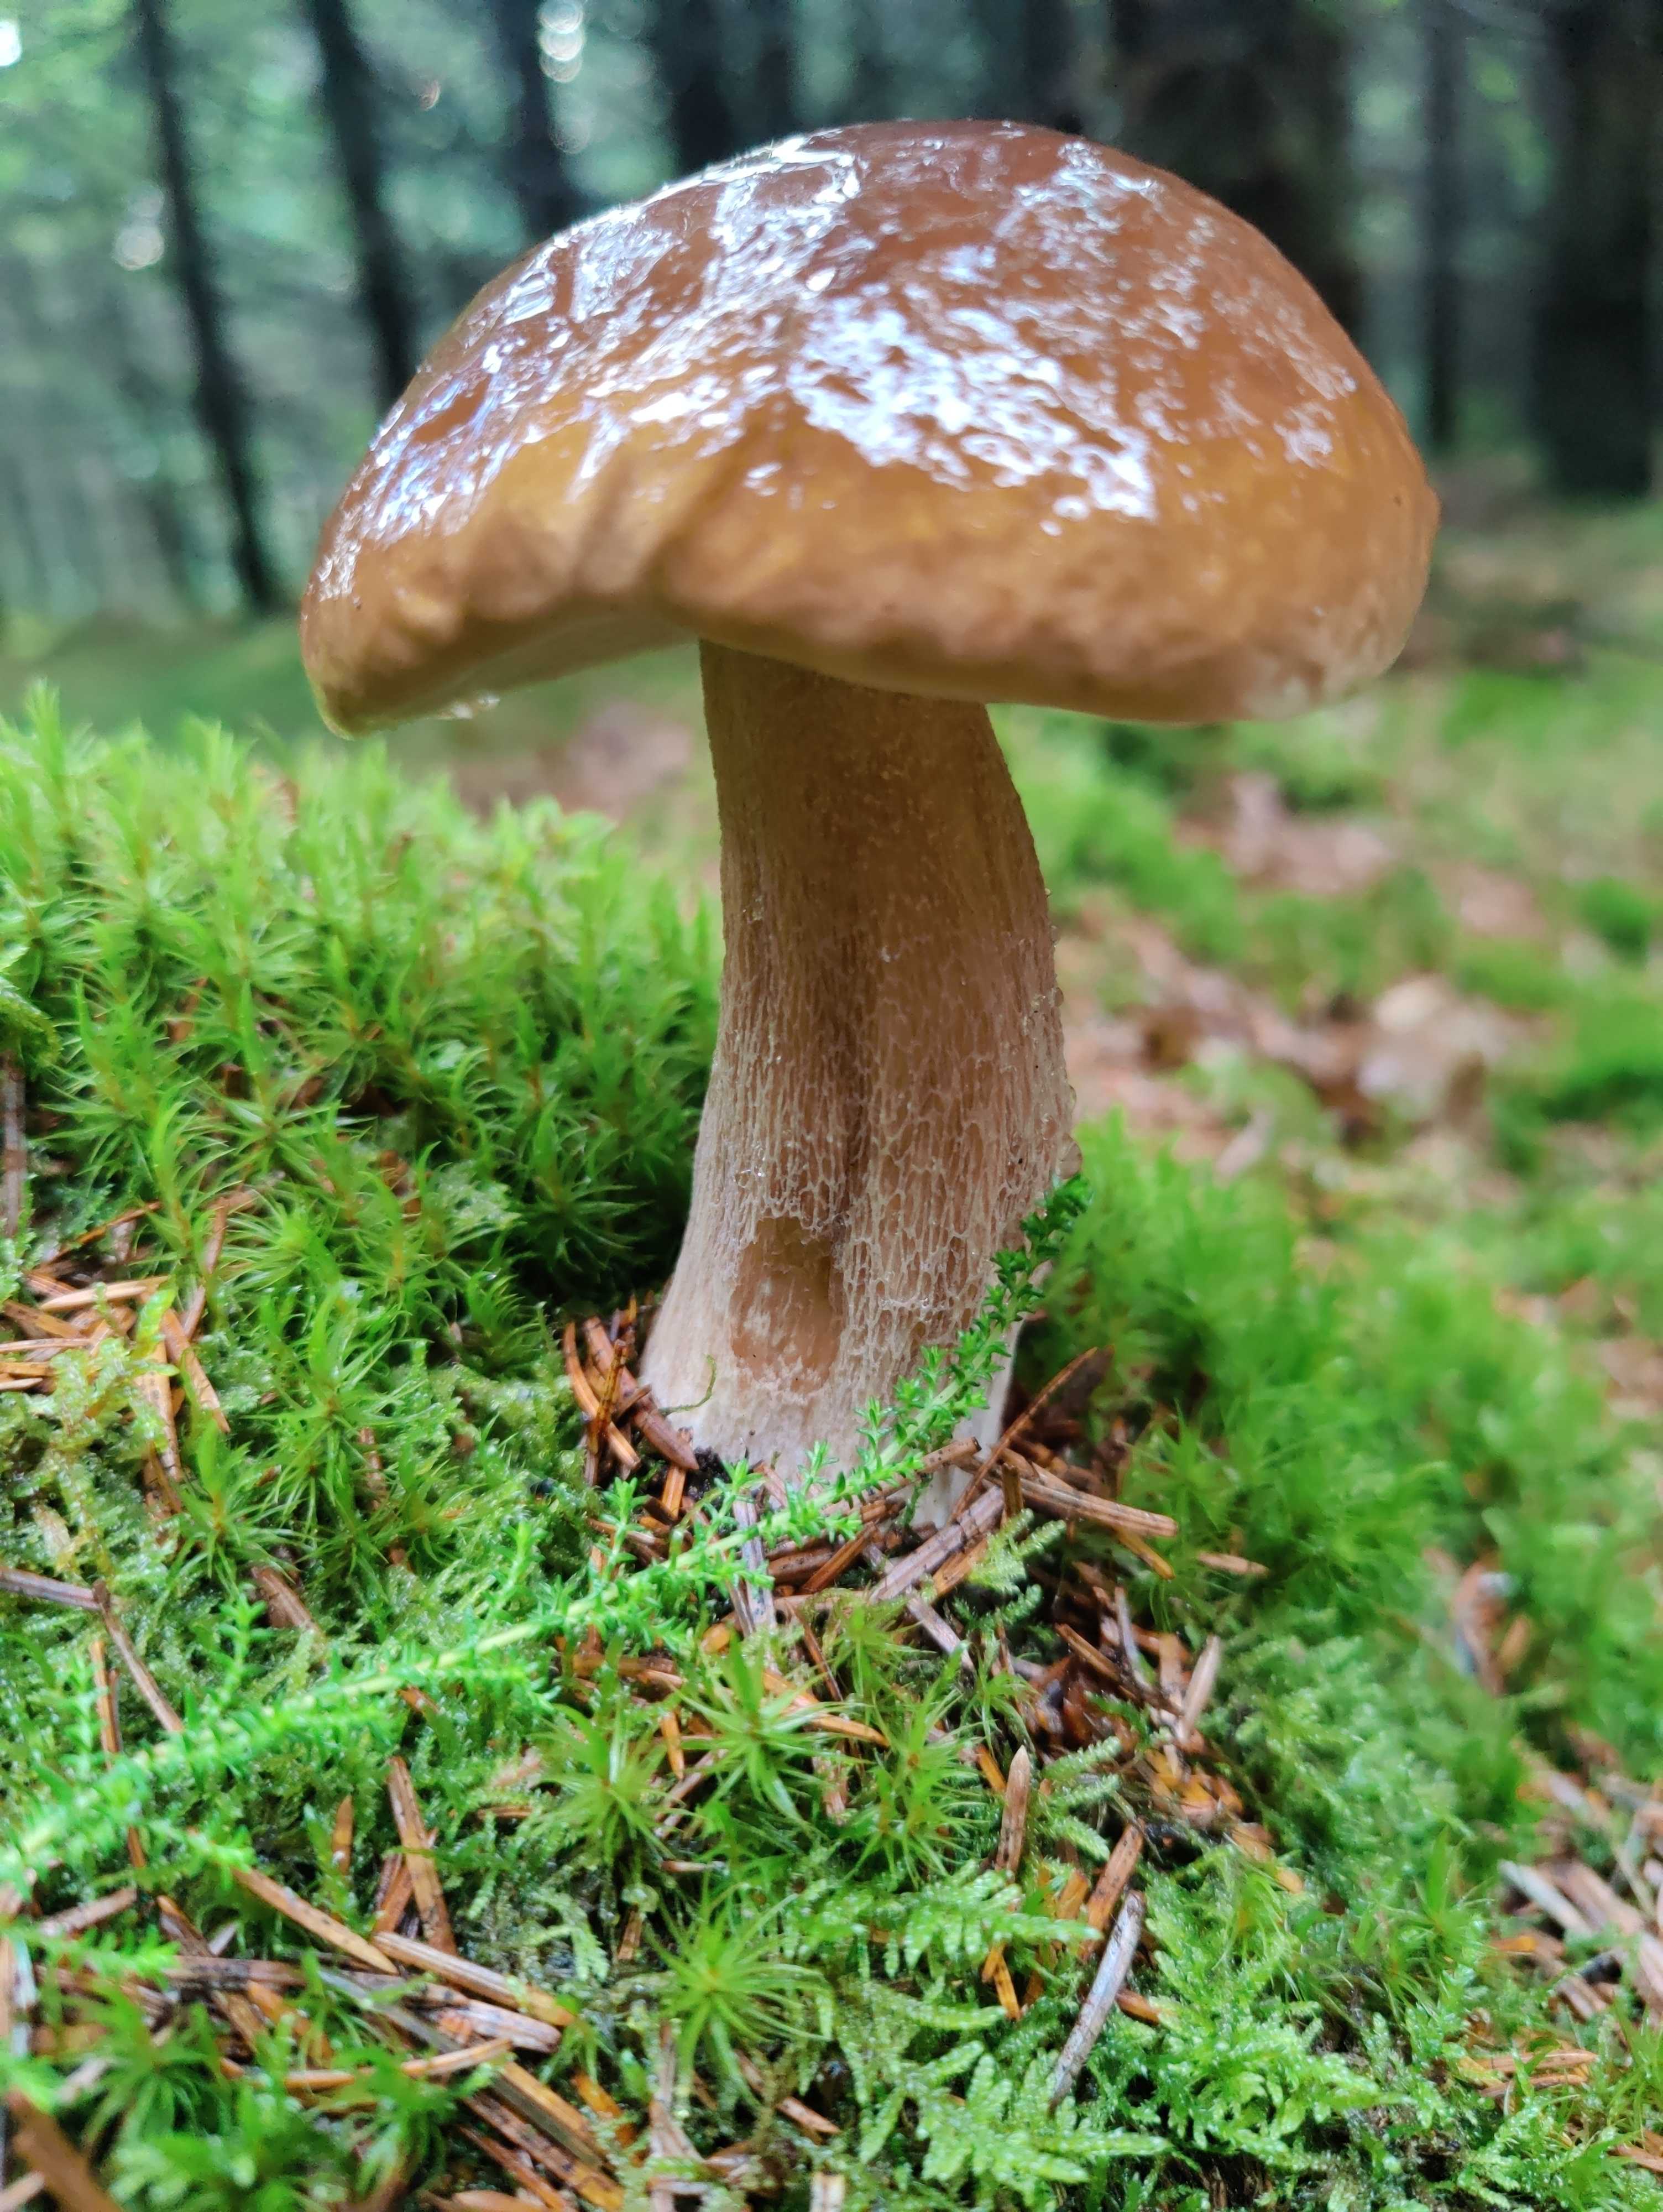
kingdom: Fungi
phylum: Basidiomycota
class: Agaricomycetes
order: Boletales
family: Boletaceae
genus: Boletus
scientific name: Boletus edulis
